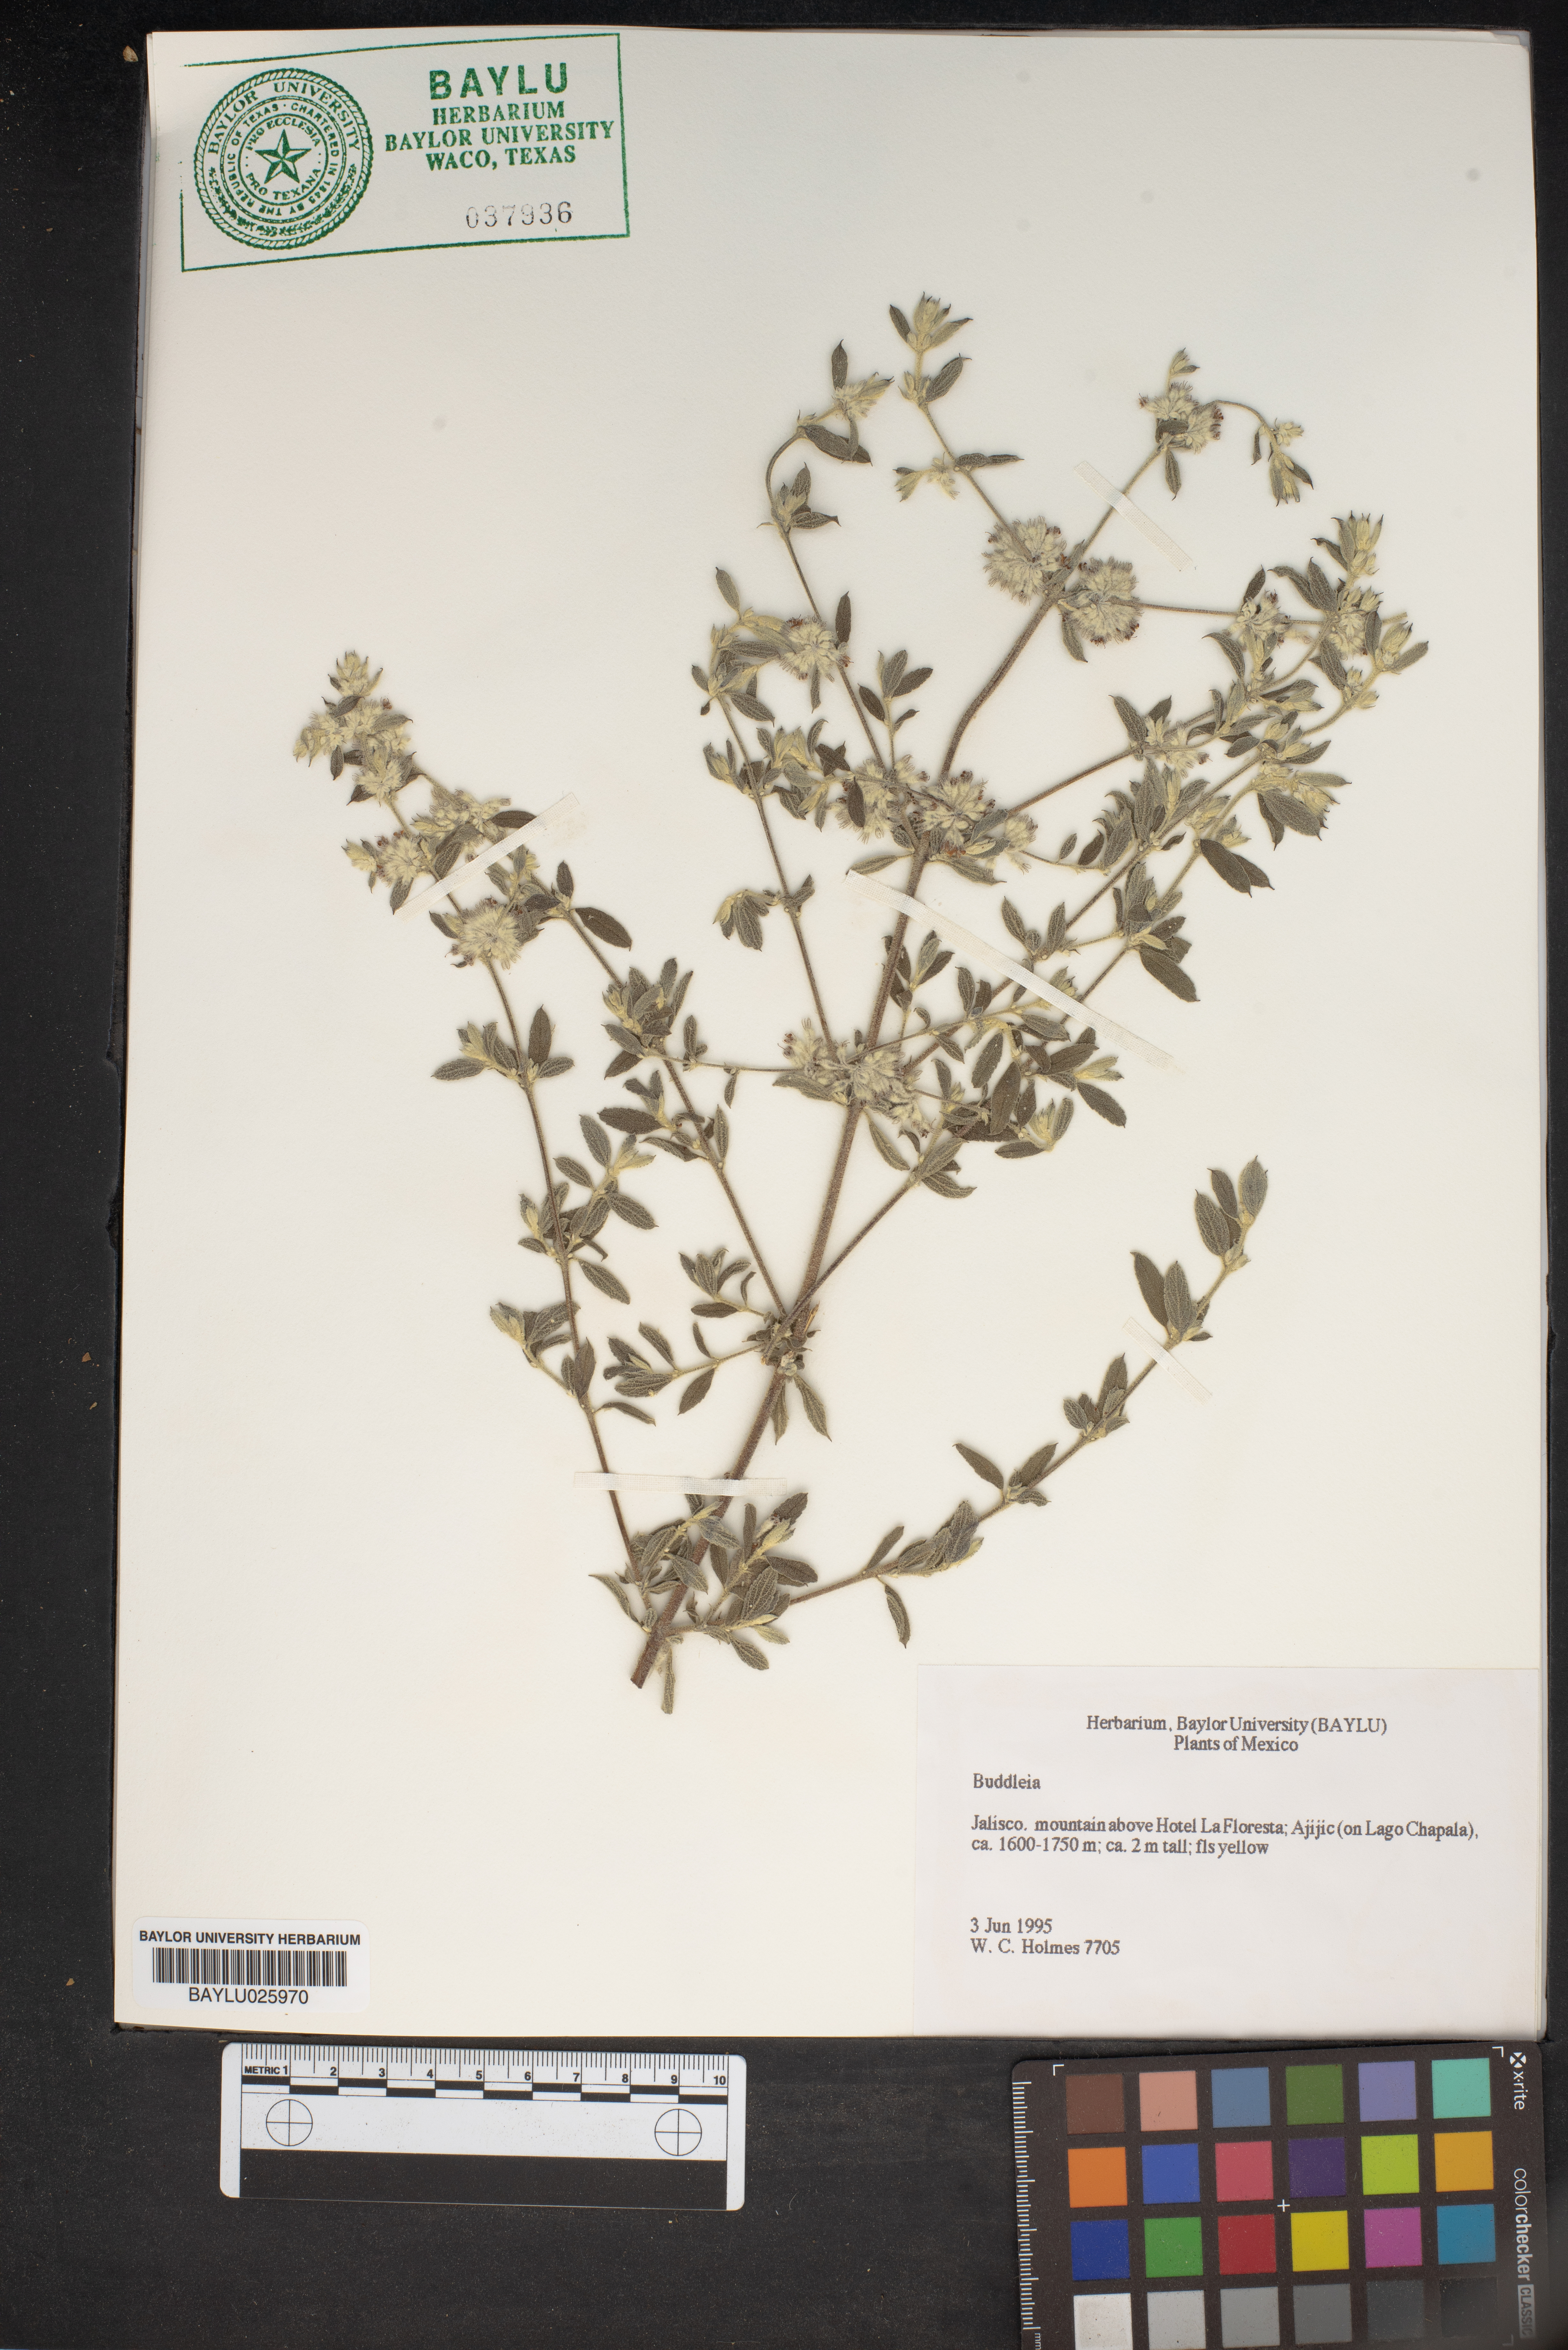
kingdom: Plantae
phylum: Tracheophyta
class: Magnoliopsida
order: Lamiales
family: Scrophulariaceae
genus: Buddleja
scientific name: Buddleja
